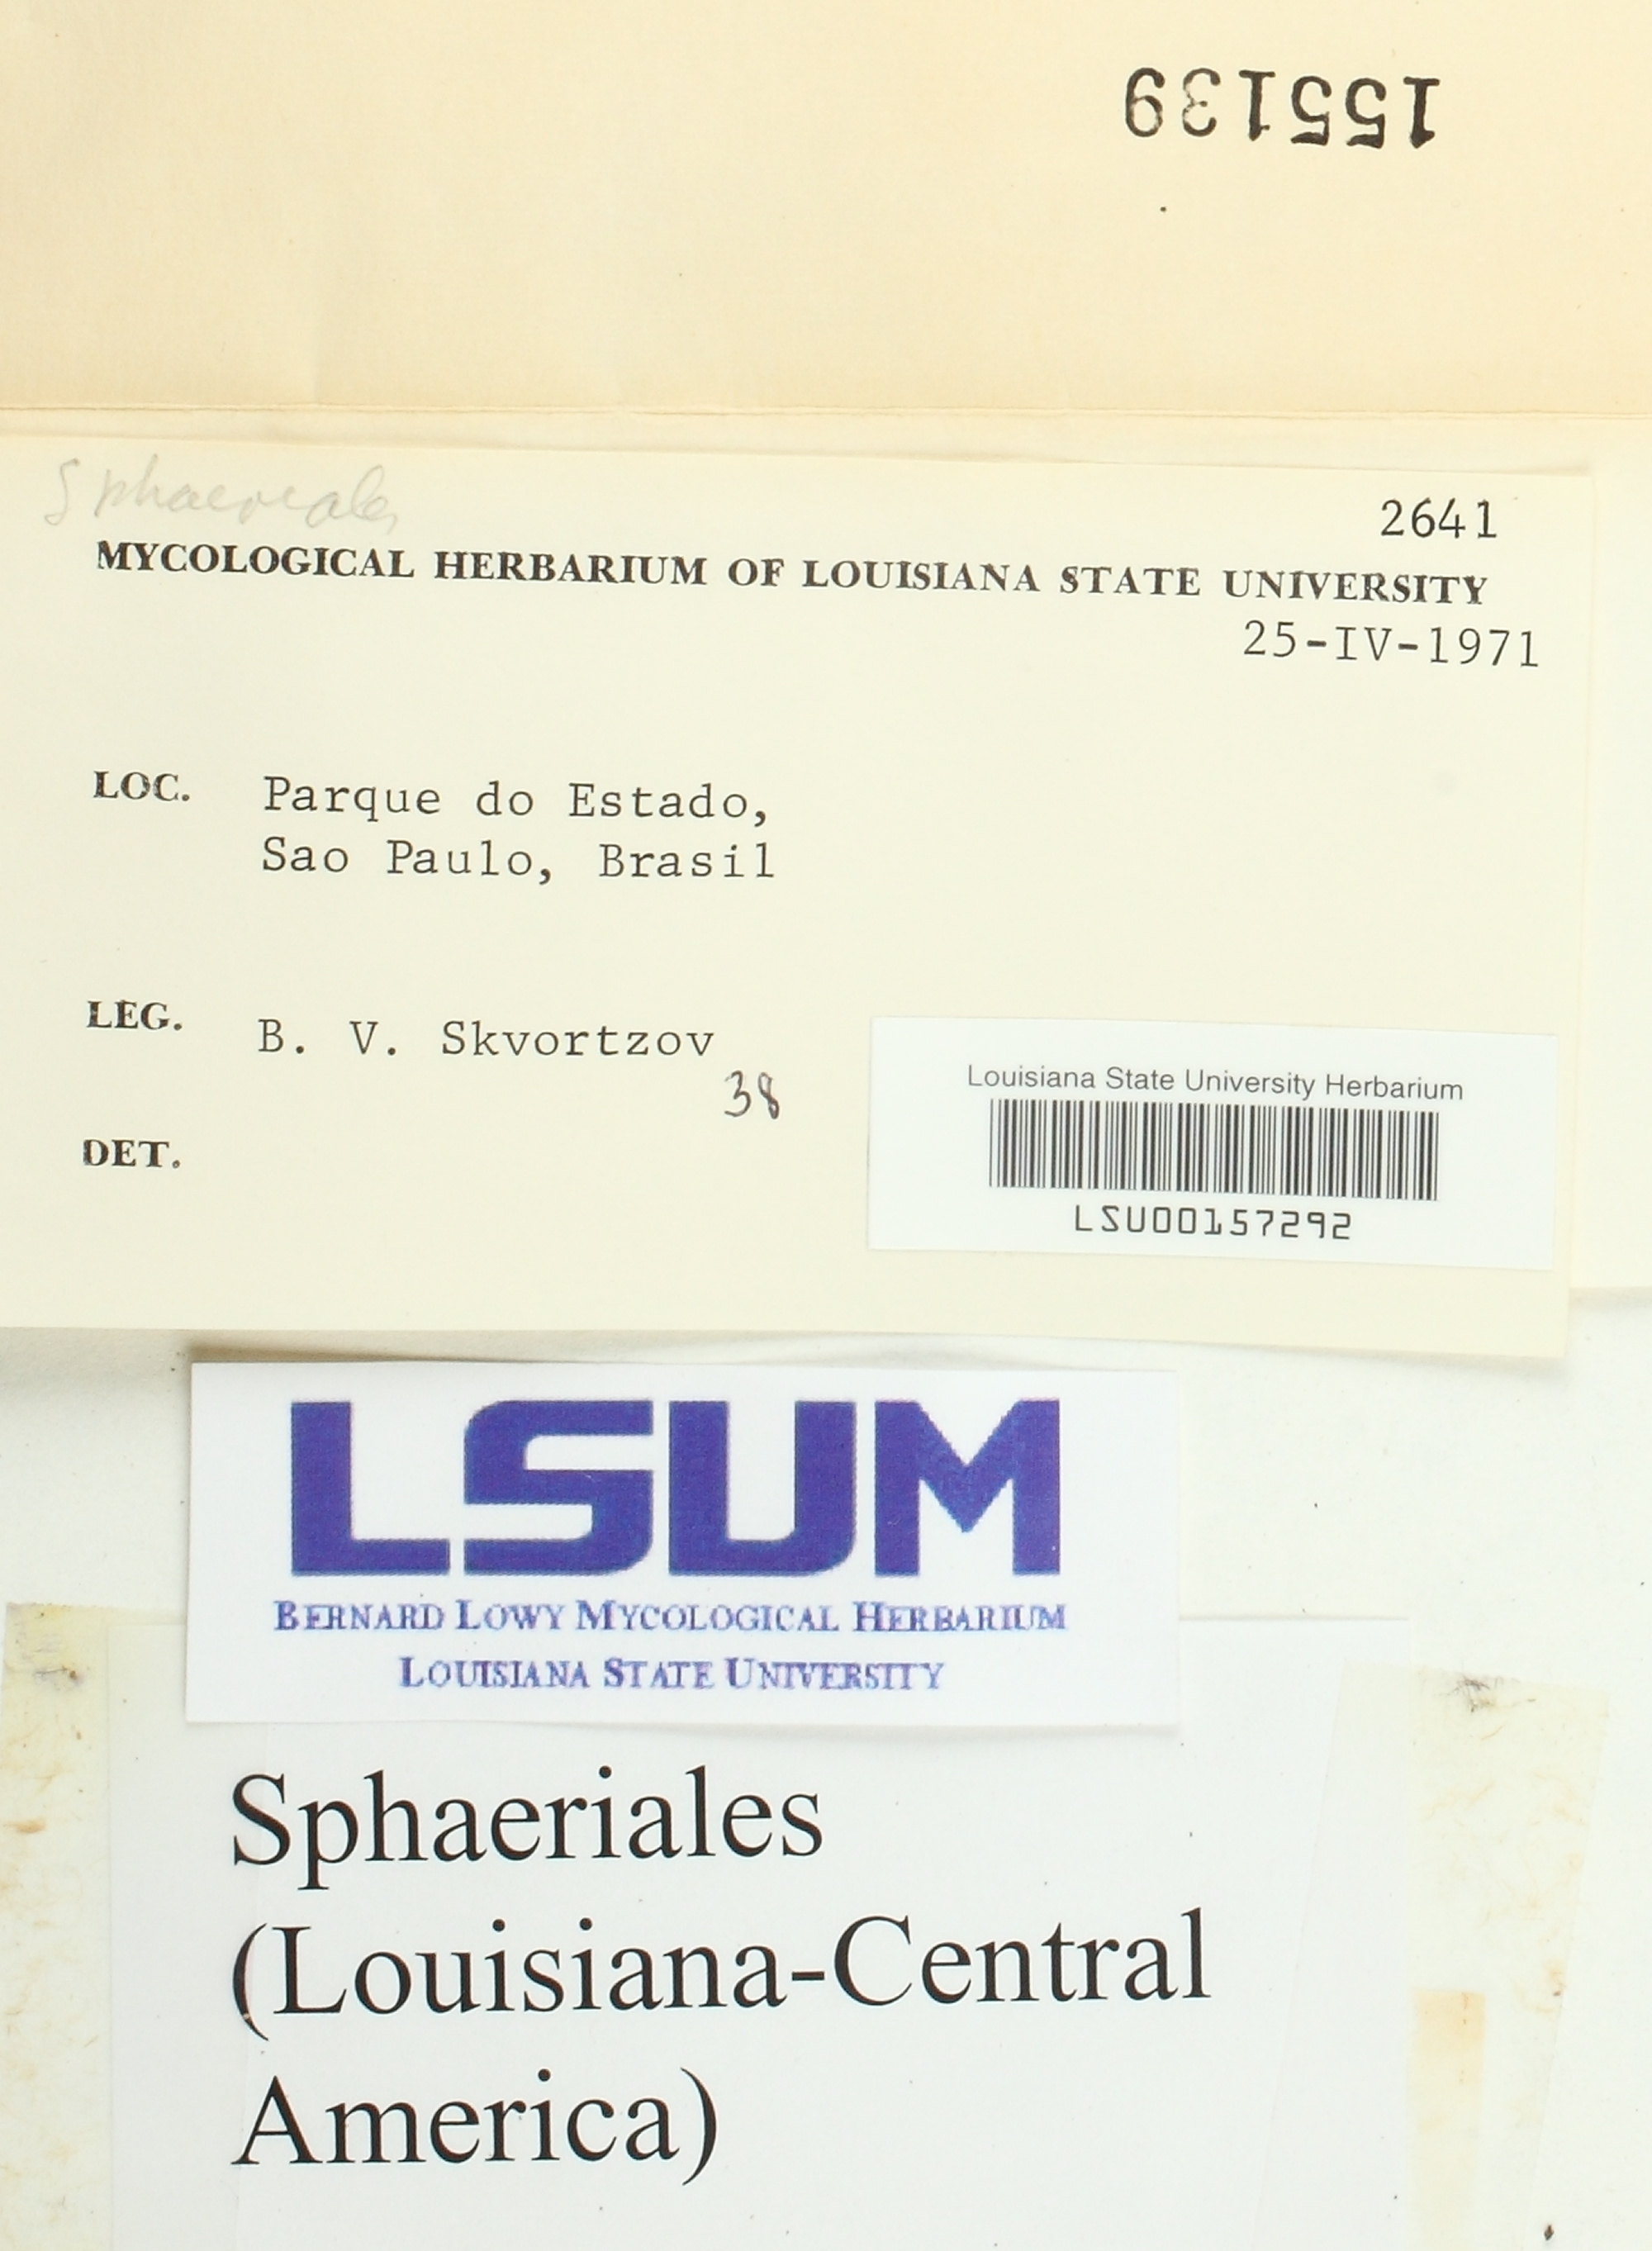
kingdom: Fungi
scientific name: Fungi
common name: Fungi
